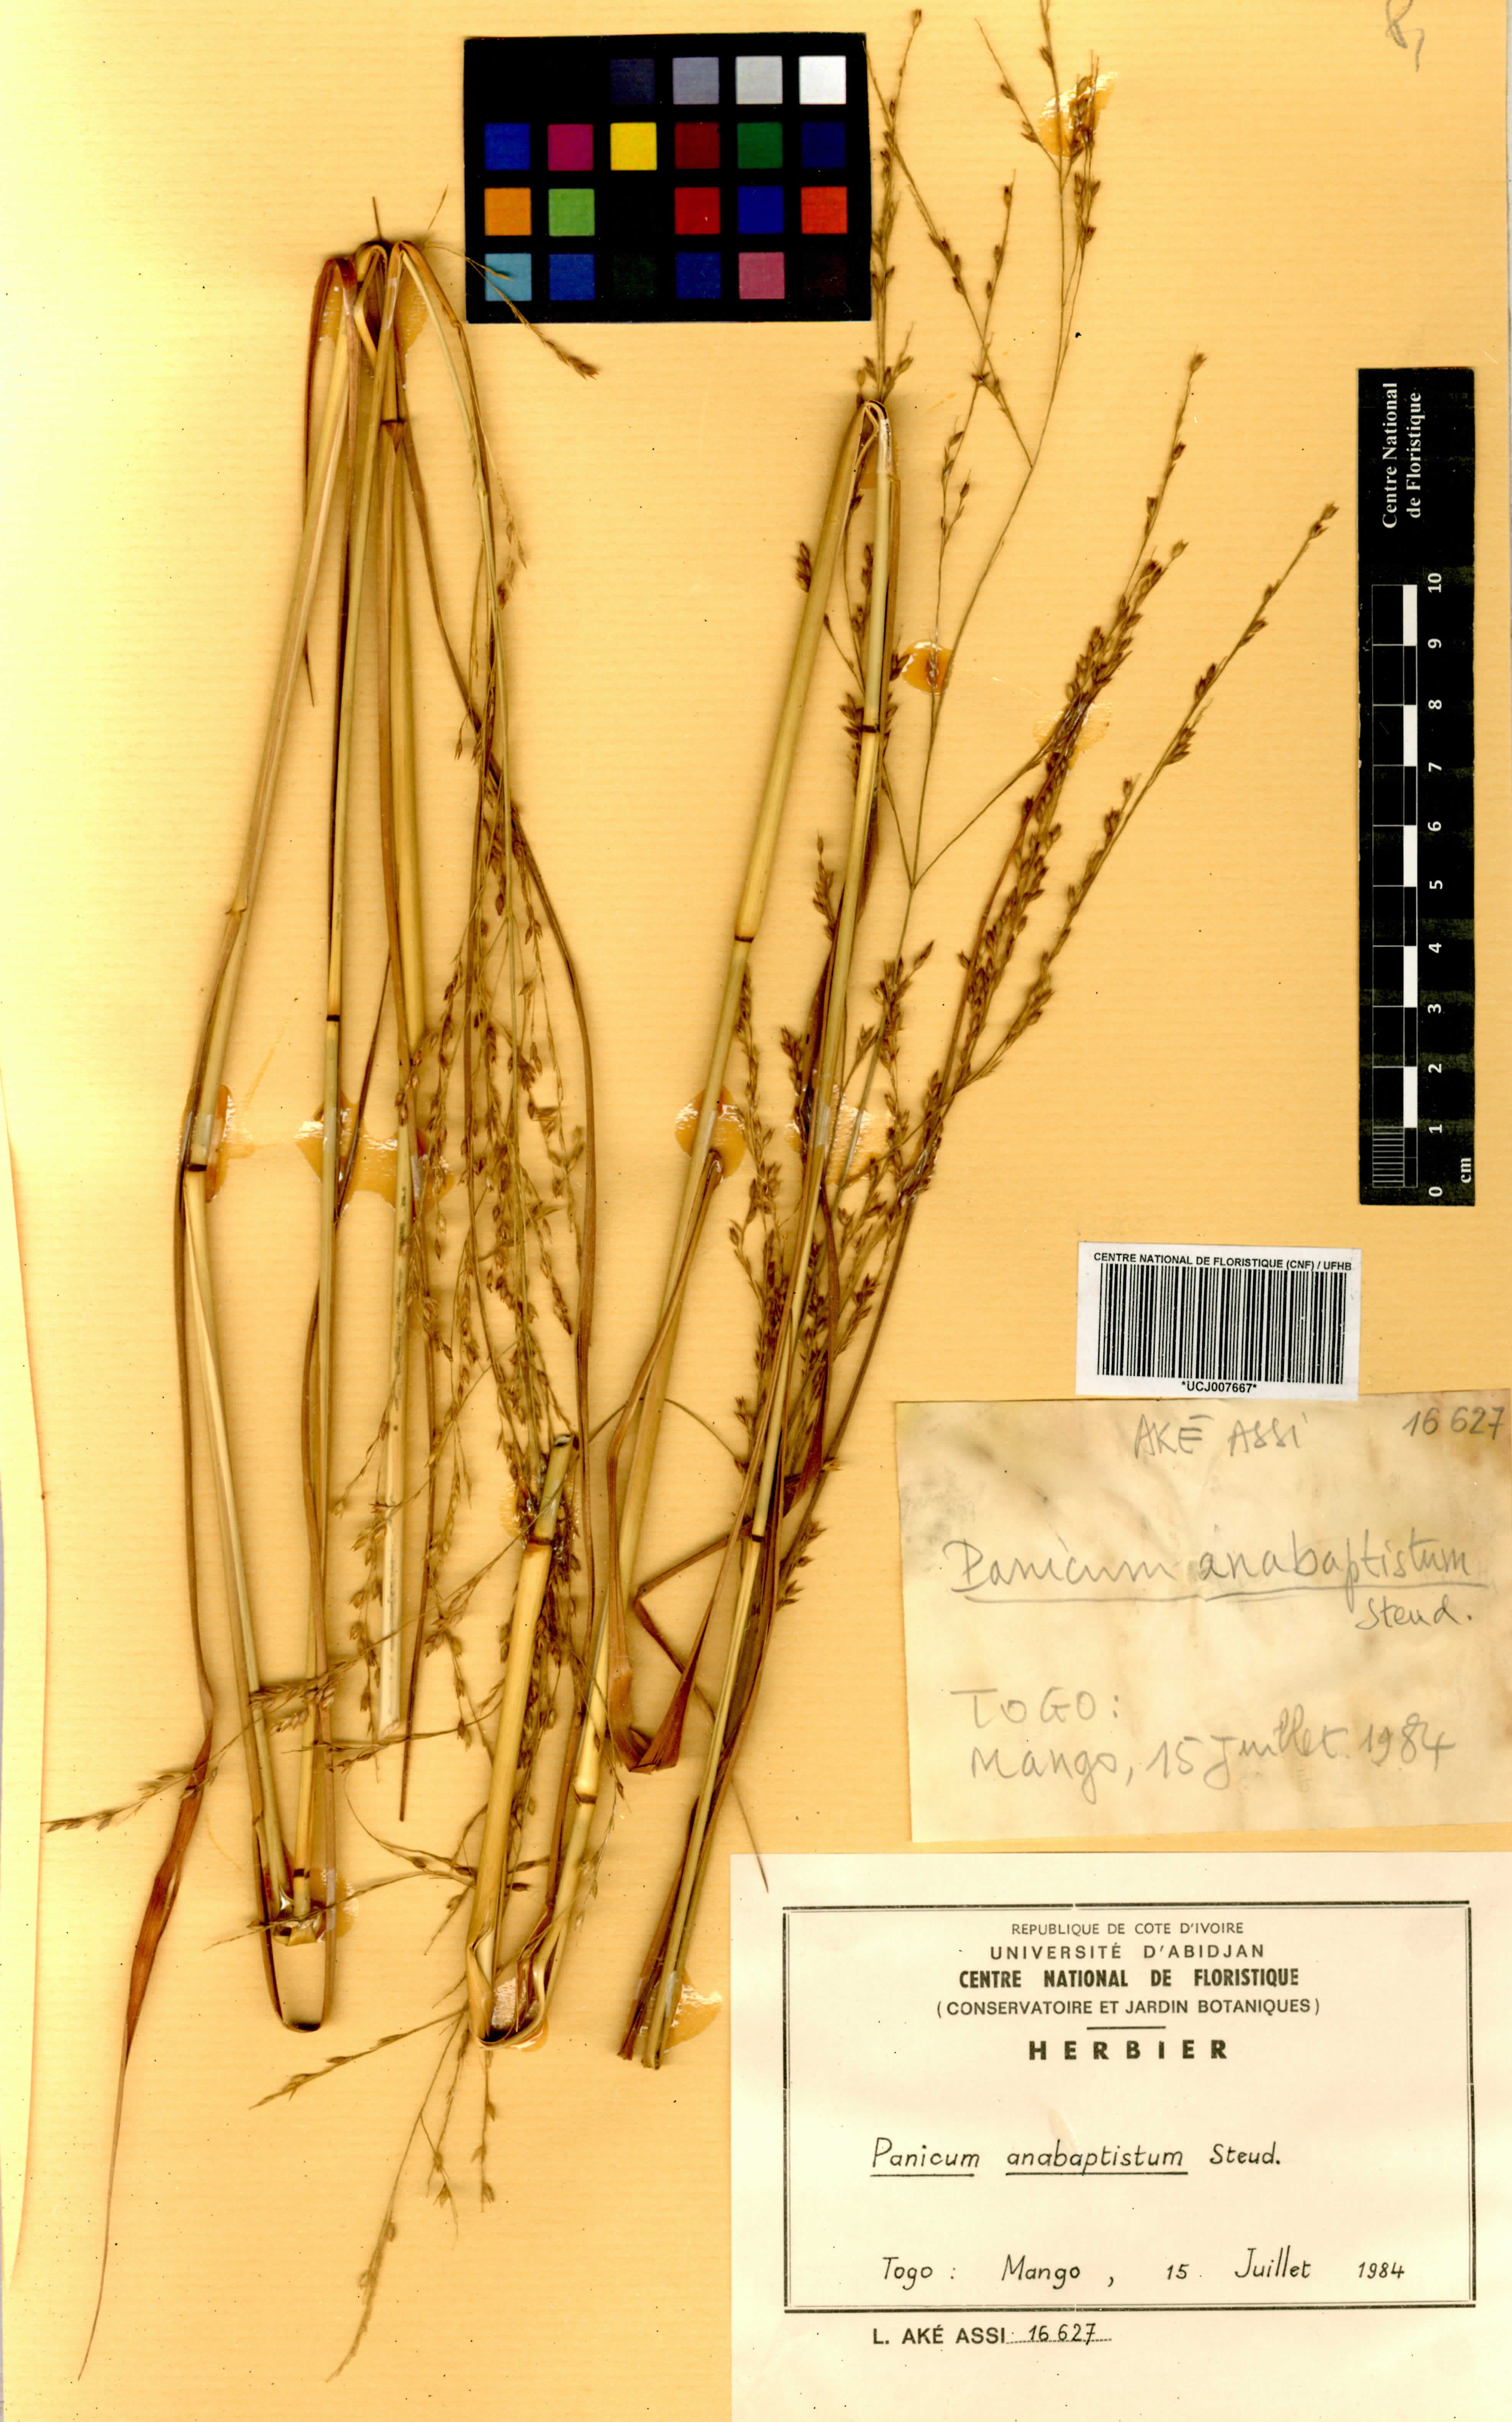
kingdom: Plantae
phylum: Tracheophyta
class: Liliopsida
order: Poales
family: Poaceae
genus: Panicum
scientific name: Panicum anabaptistum
